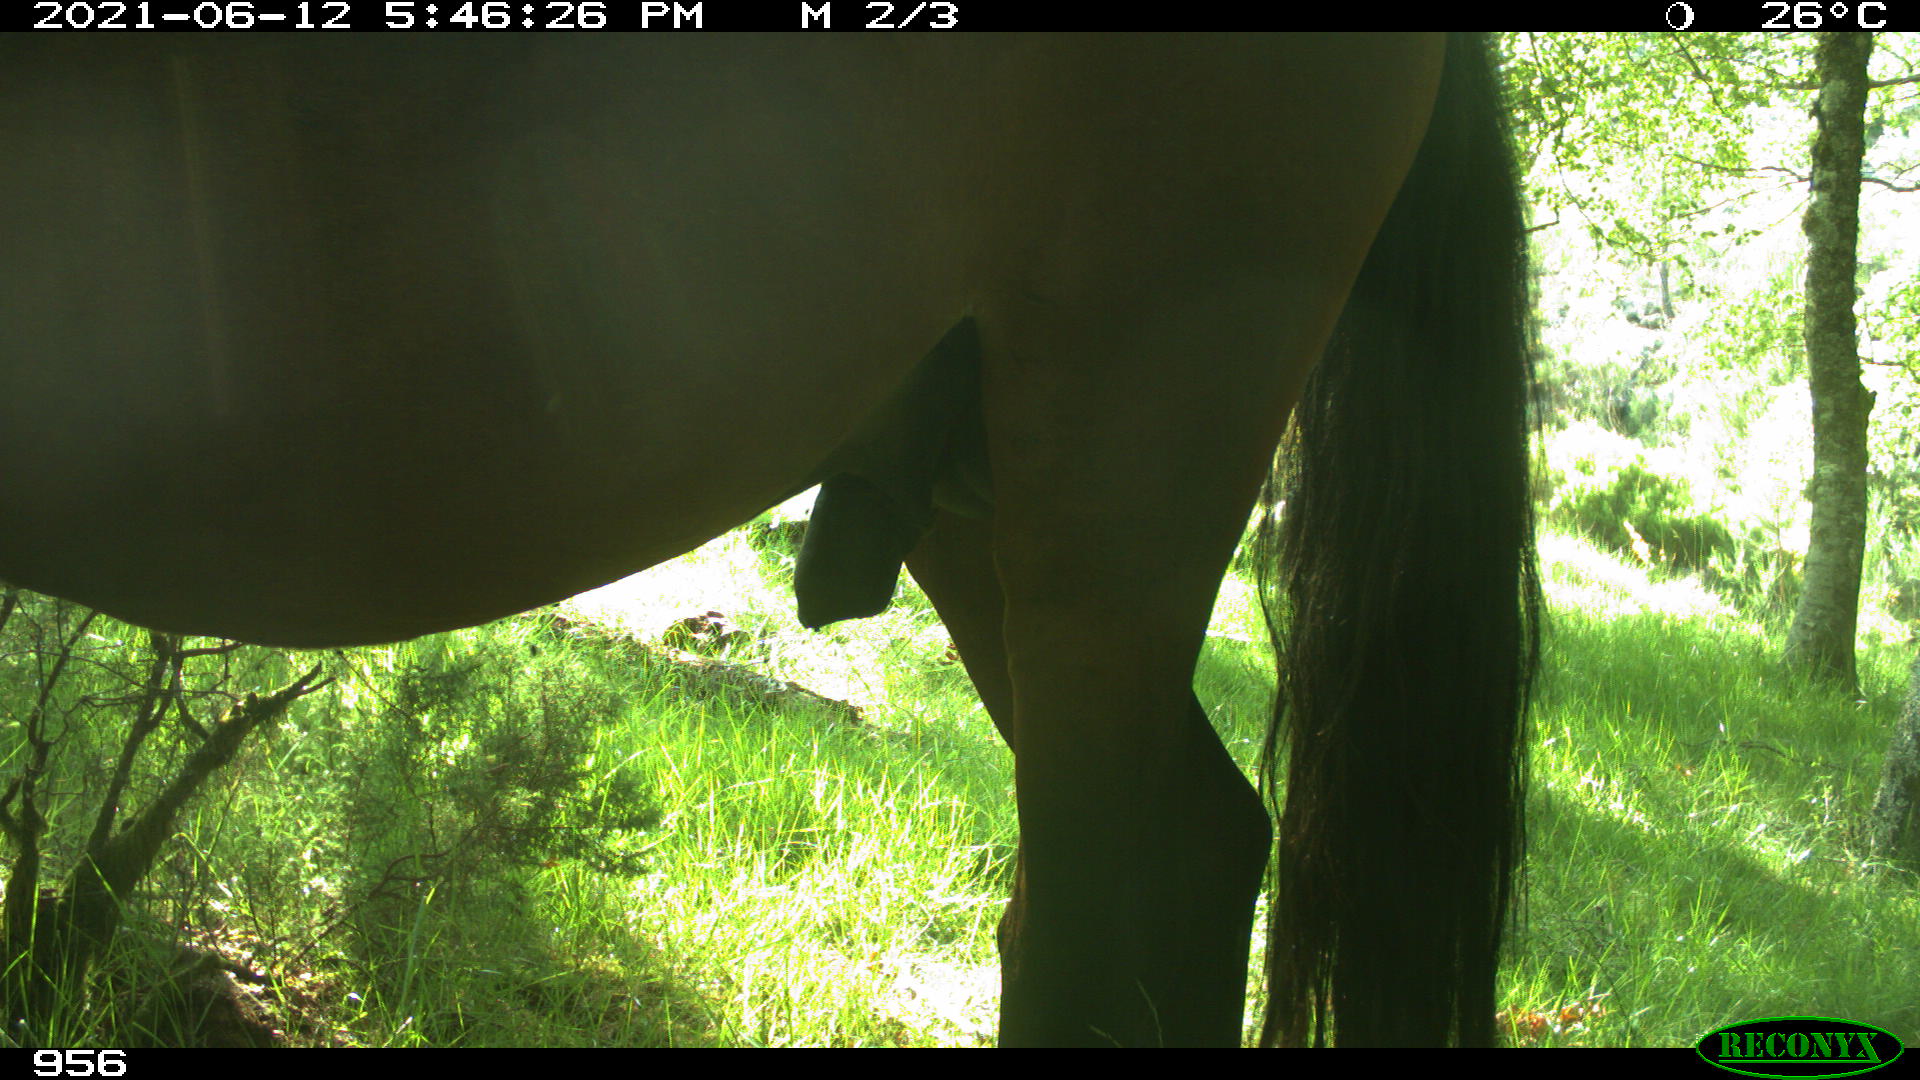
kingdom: Animalia
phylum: Chordata
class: Mammalia
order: Perissodactyla
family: Equidae
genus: Equus
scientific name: Equus caballus
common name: Horse
